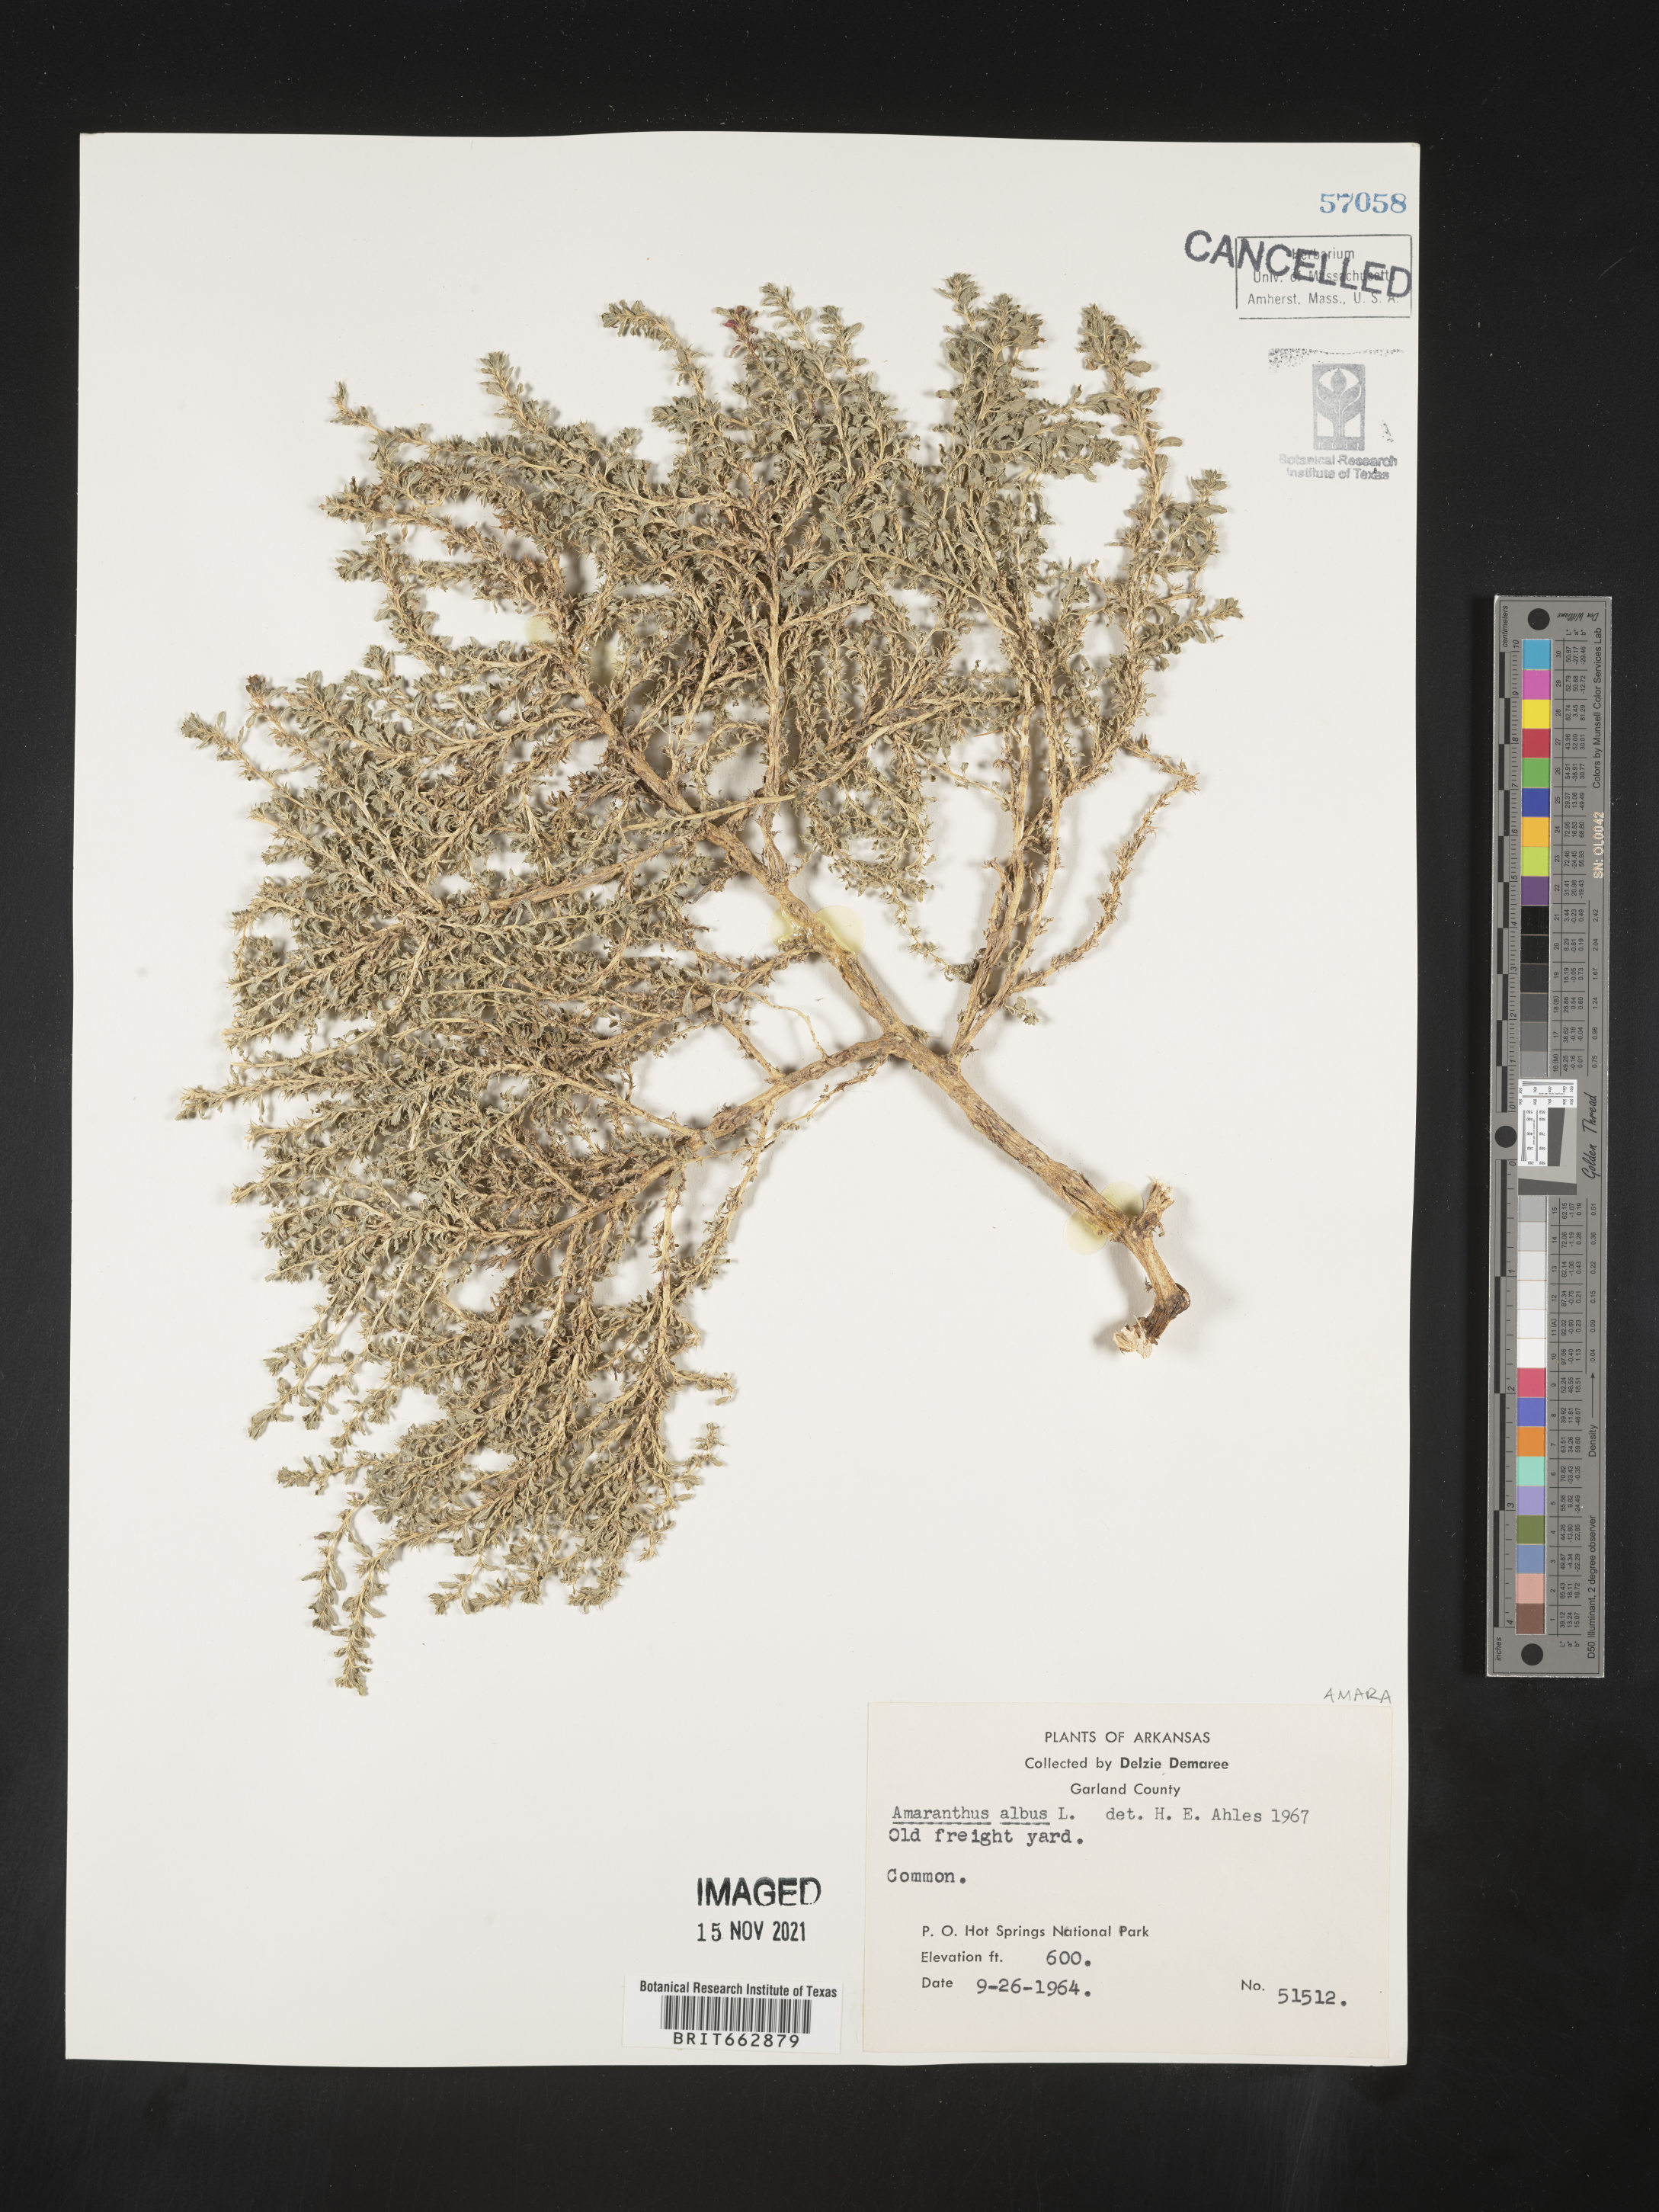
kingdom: Plantae
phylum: Tracheophyta
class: Magnoliopsida
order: Caryophyllales
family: Amaranthaceae
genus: Amaranthus
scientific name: Amaranthus albus
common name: White pigweed
